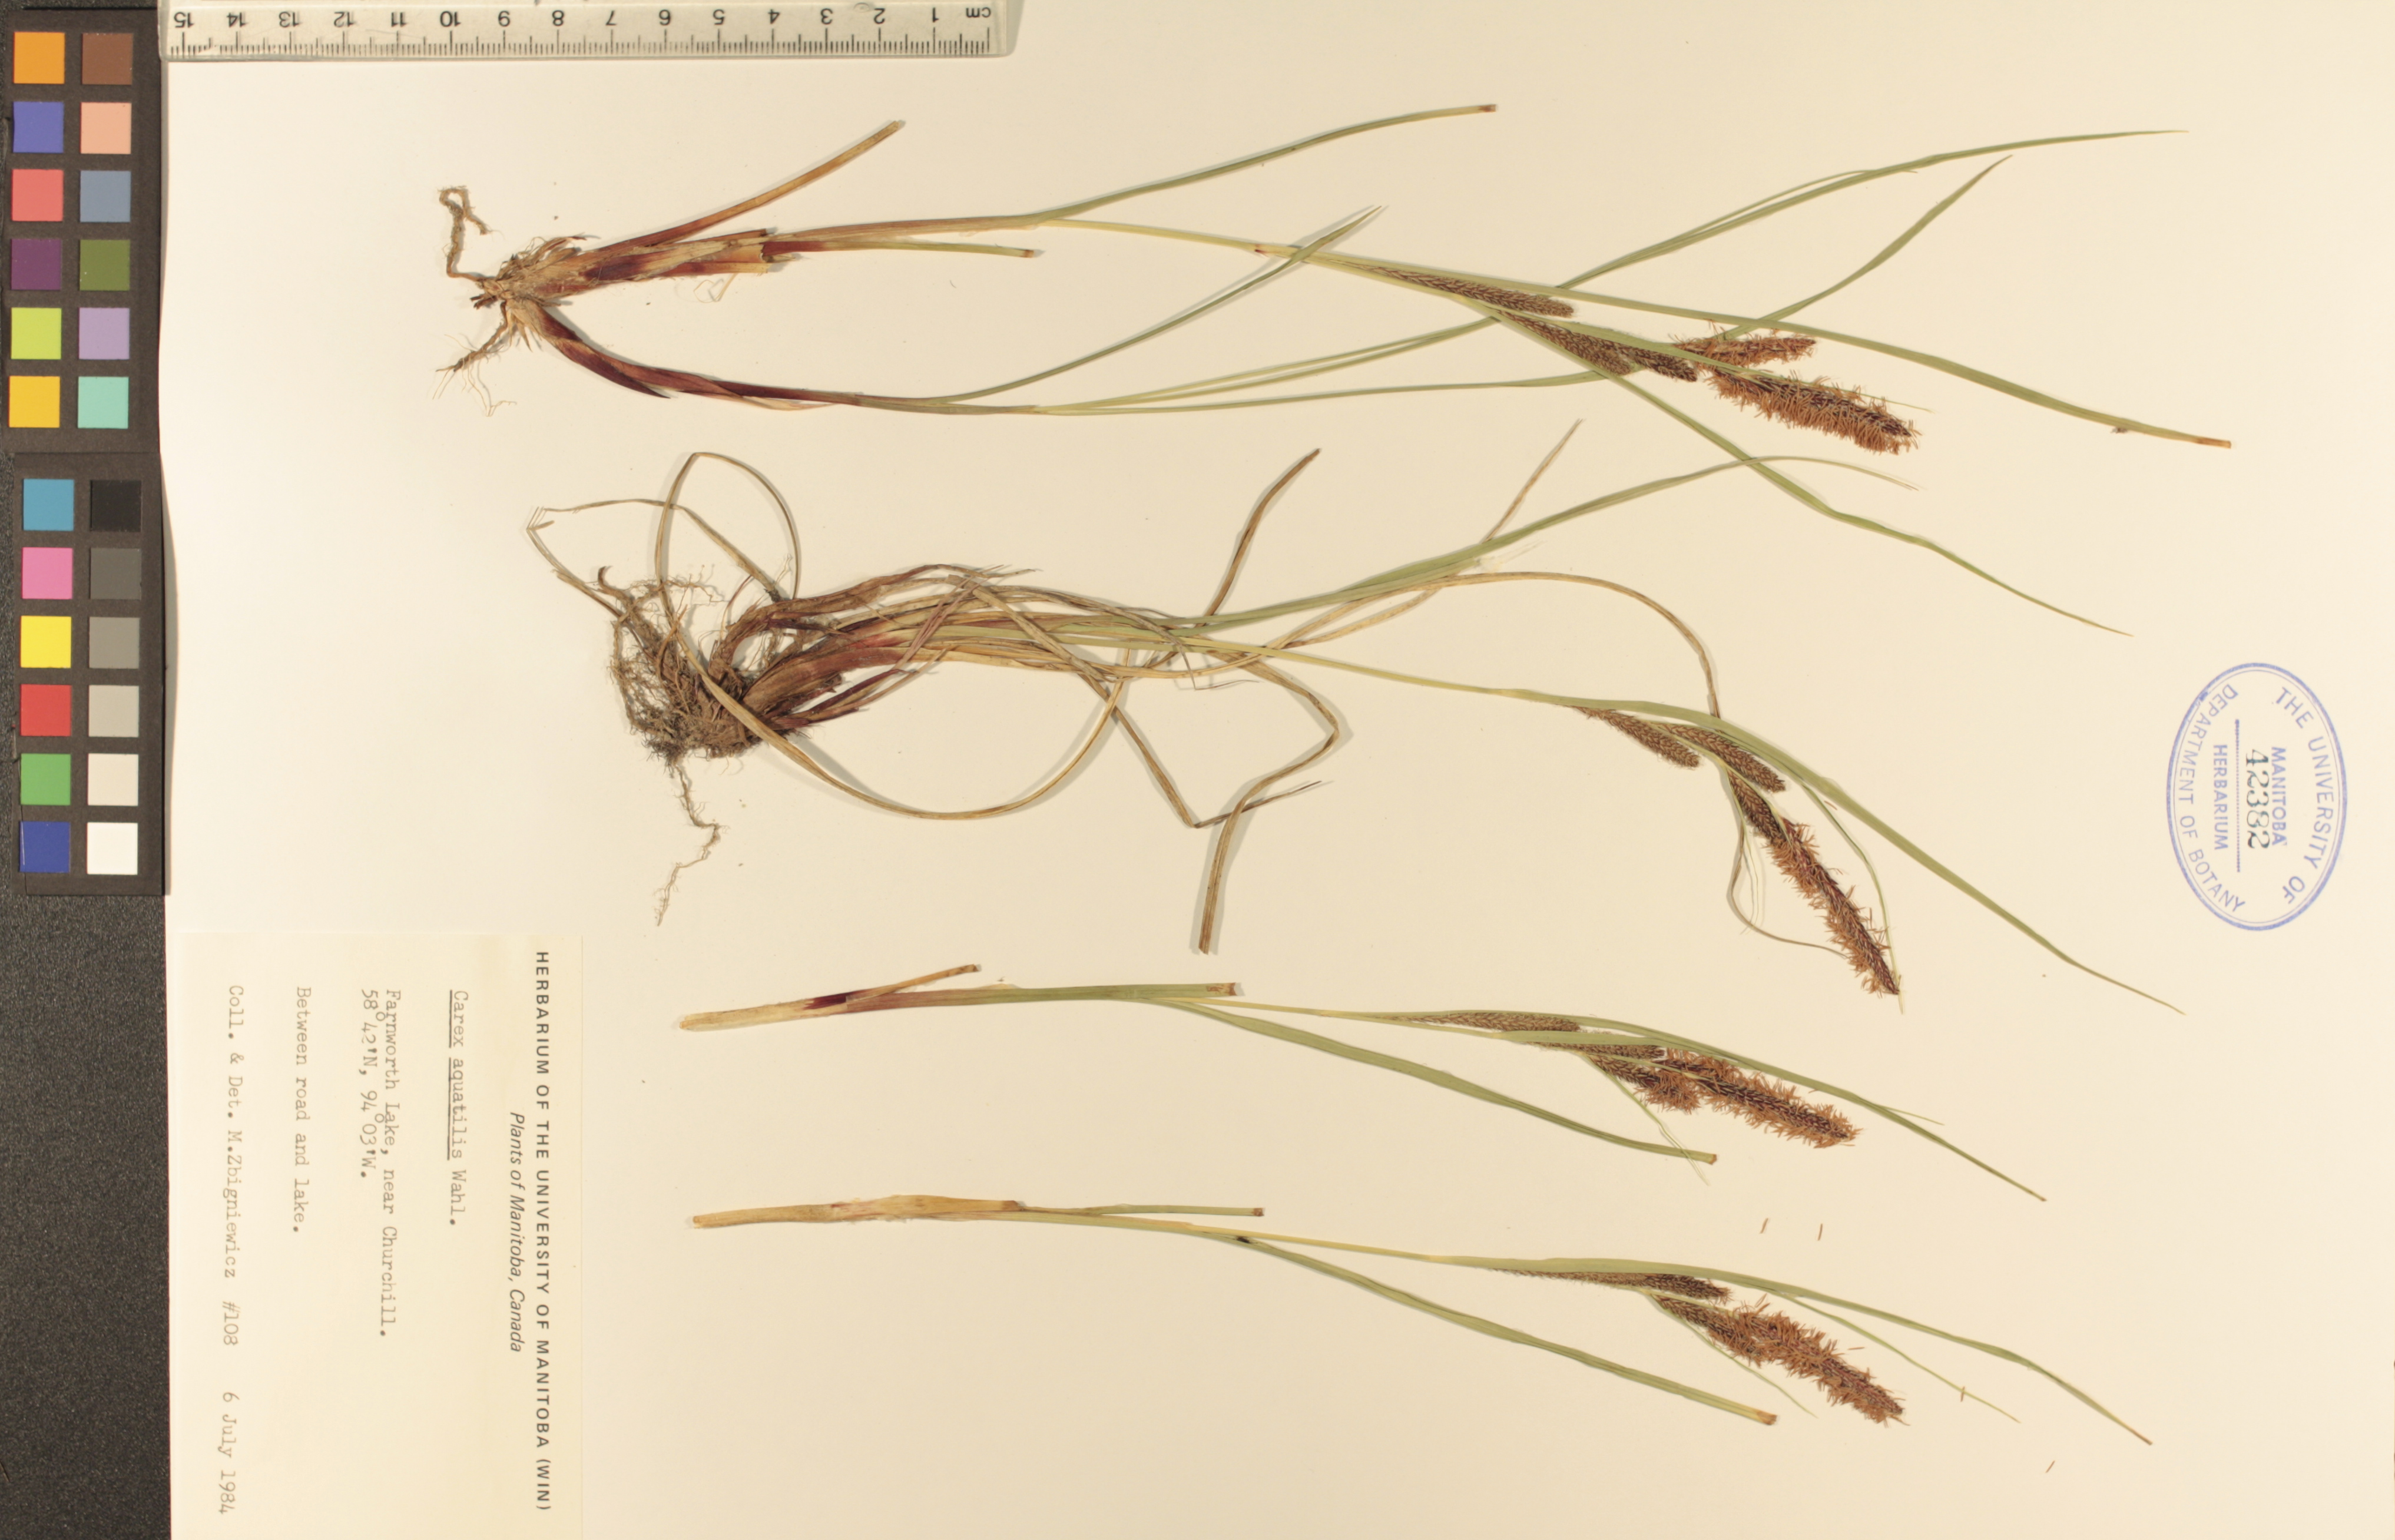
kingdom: Plantae
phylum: Tracheophyta
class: Liliopsida
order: Poales
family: Cyperaceae
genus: Carex
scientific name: Carex aquatilis
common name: Water sedge
